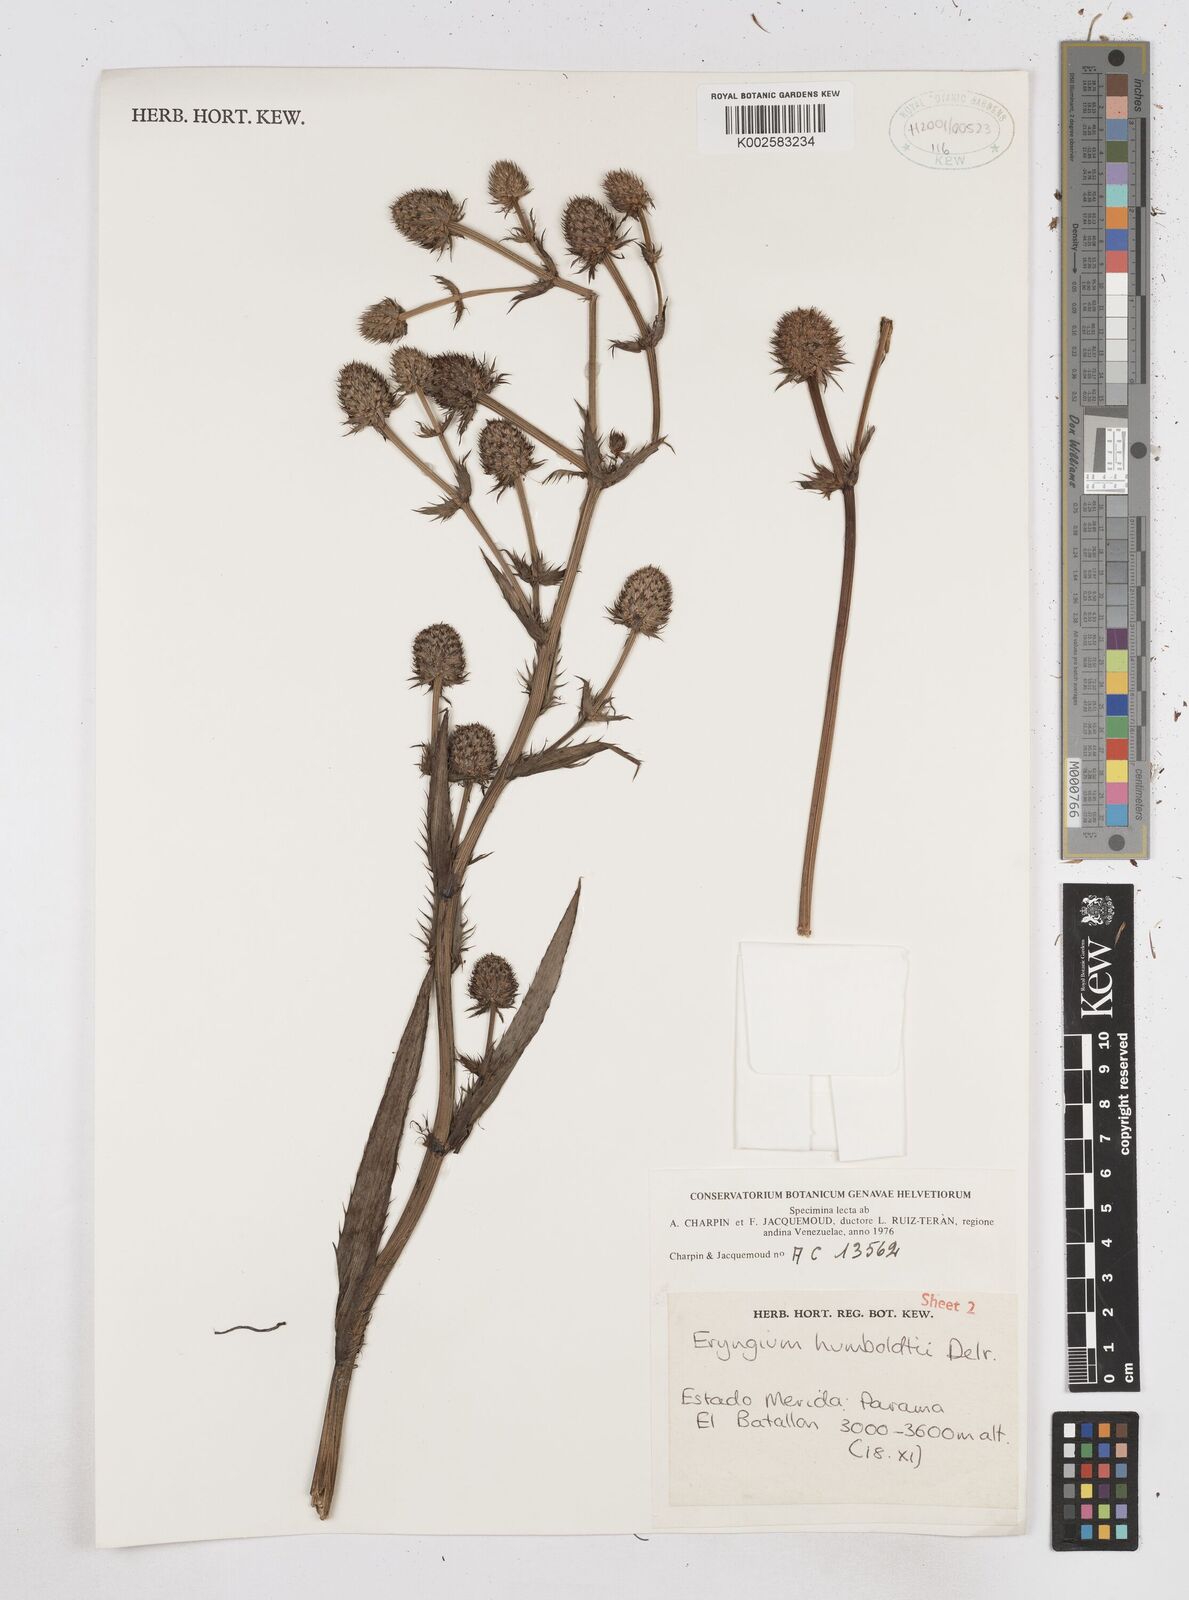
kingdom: Plantae
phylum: Tracheophyta
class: Magnoliopsida
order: Apiales
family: Apiaceae
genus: Eryngium
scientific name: Eryngium humboldtii
